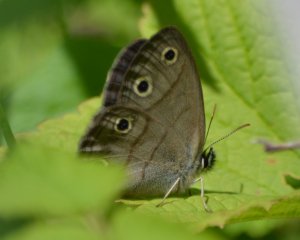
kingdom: Animalia
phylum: Arthropoda
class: Insecta
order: Lepidoptera
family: Nymphalidae
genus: Euptychia
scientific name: Euptychia cymela
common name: Little Wood Satyr
